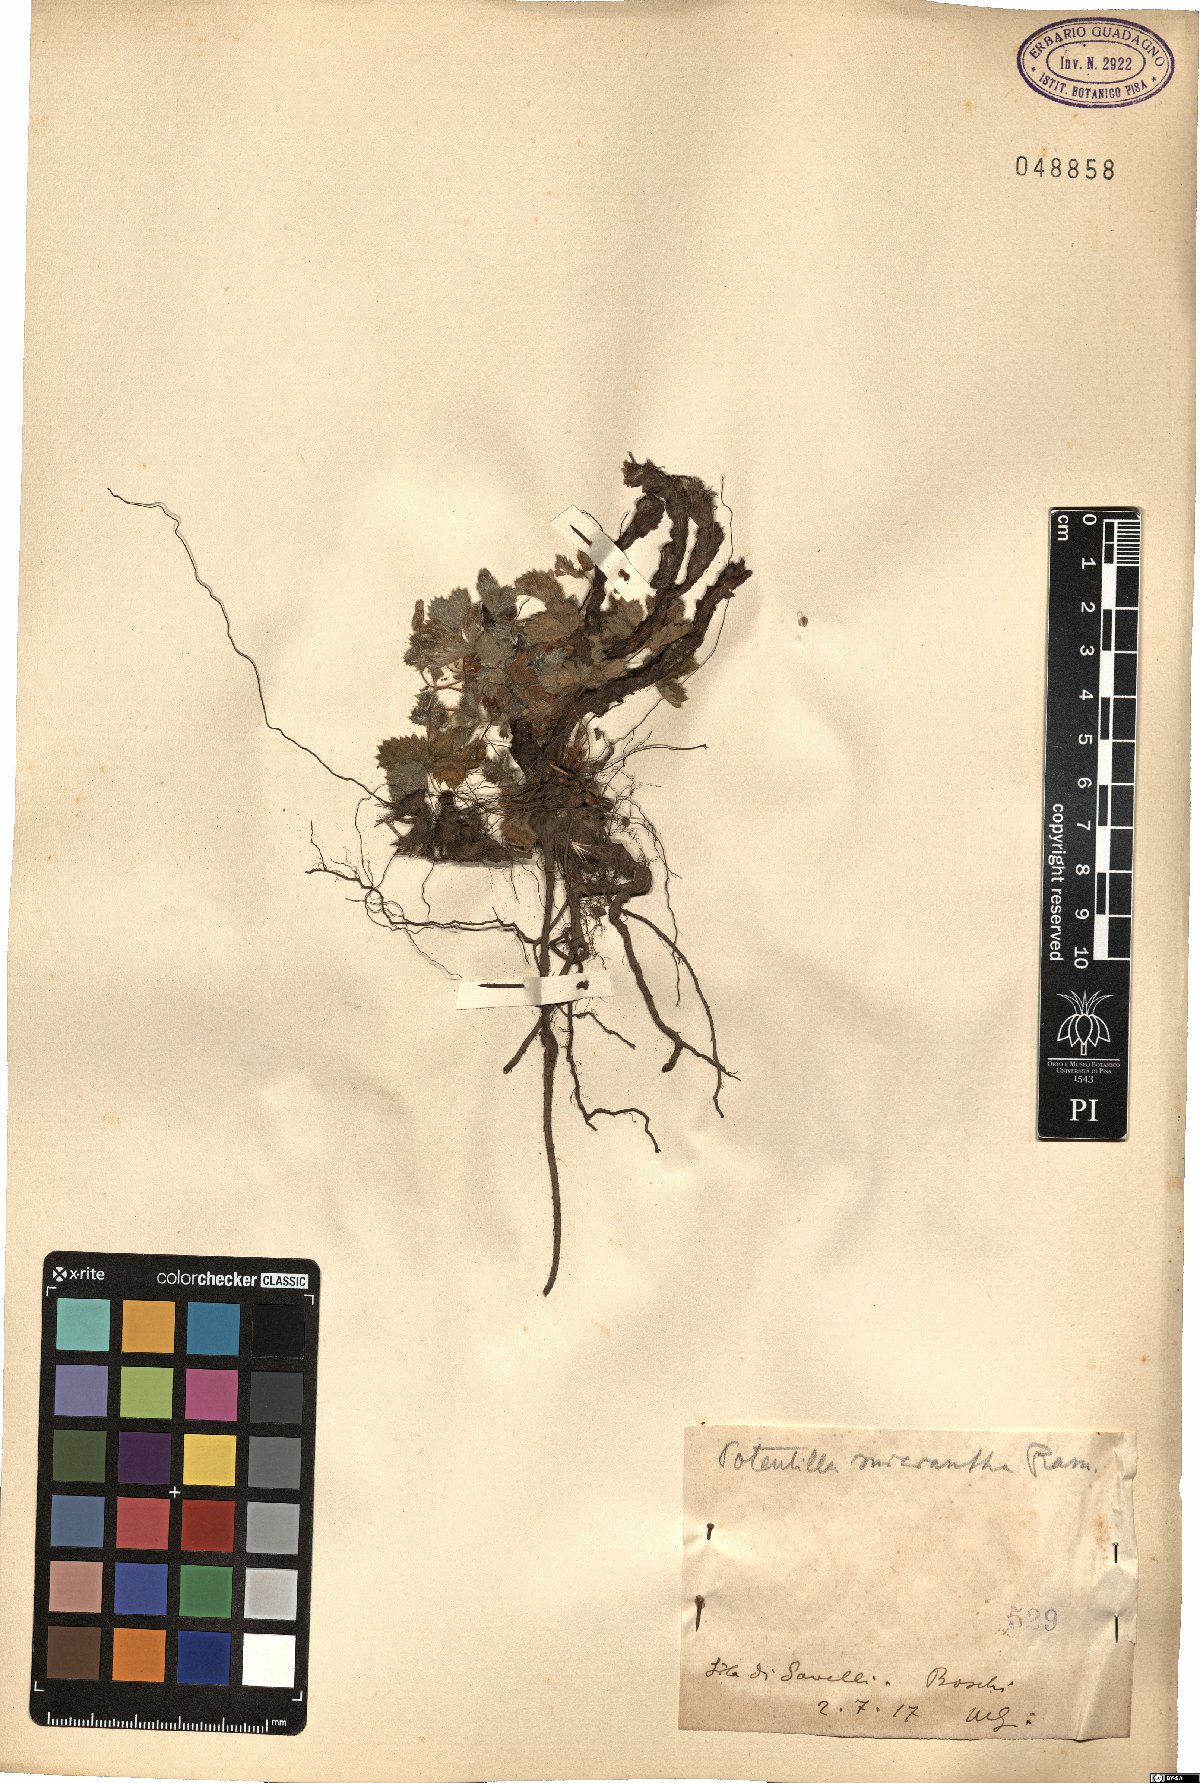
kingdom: Plantae
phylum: Tracheophyta
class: Magnoliopsida
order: Rosales
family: Rosaceae
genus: Potentilla
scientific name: Potentilla micrantha
